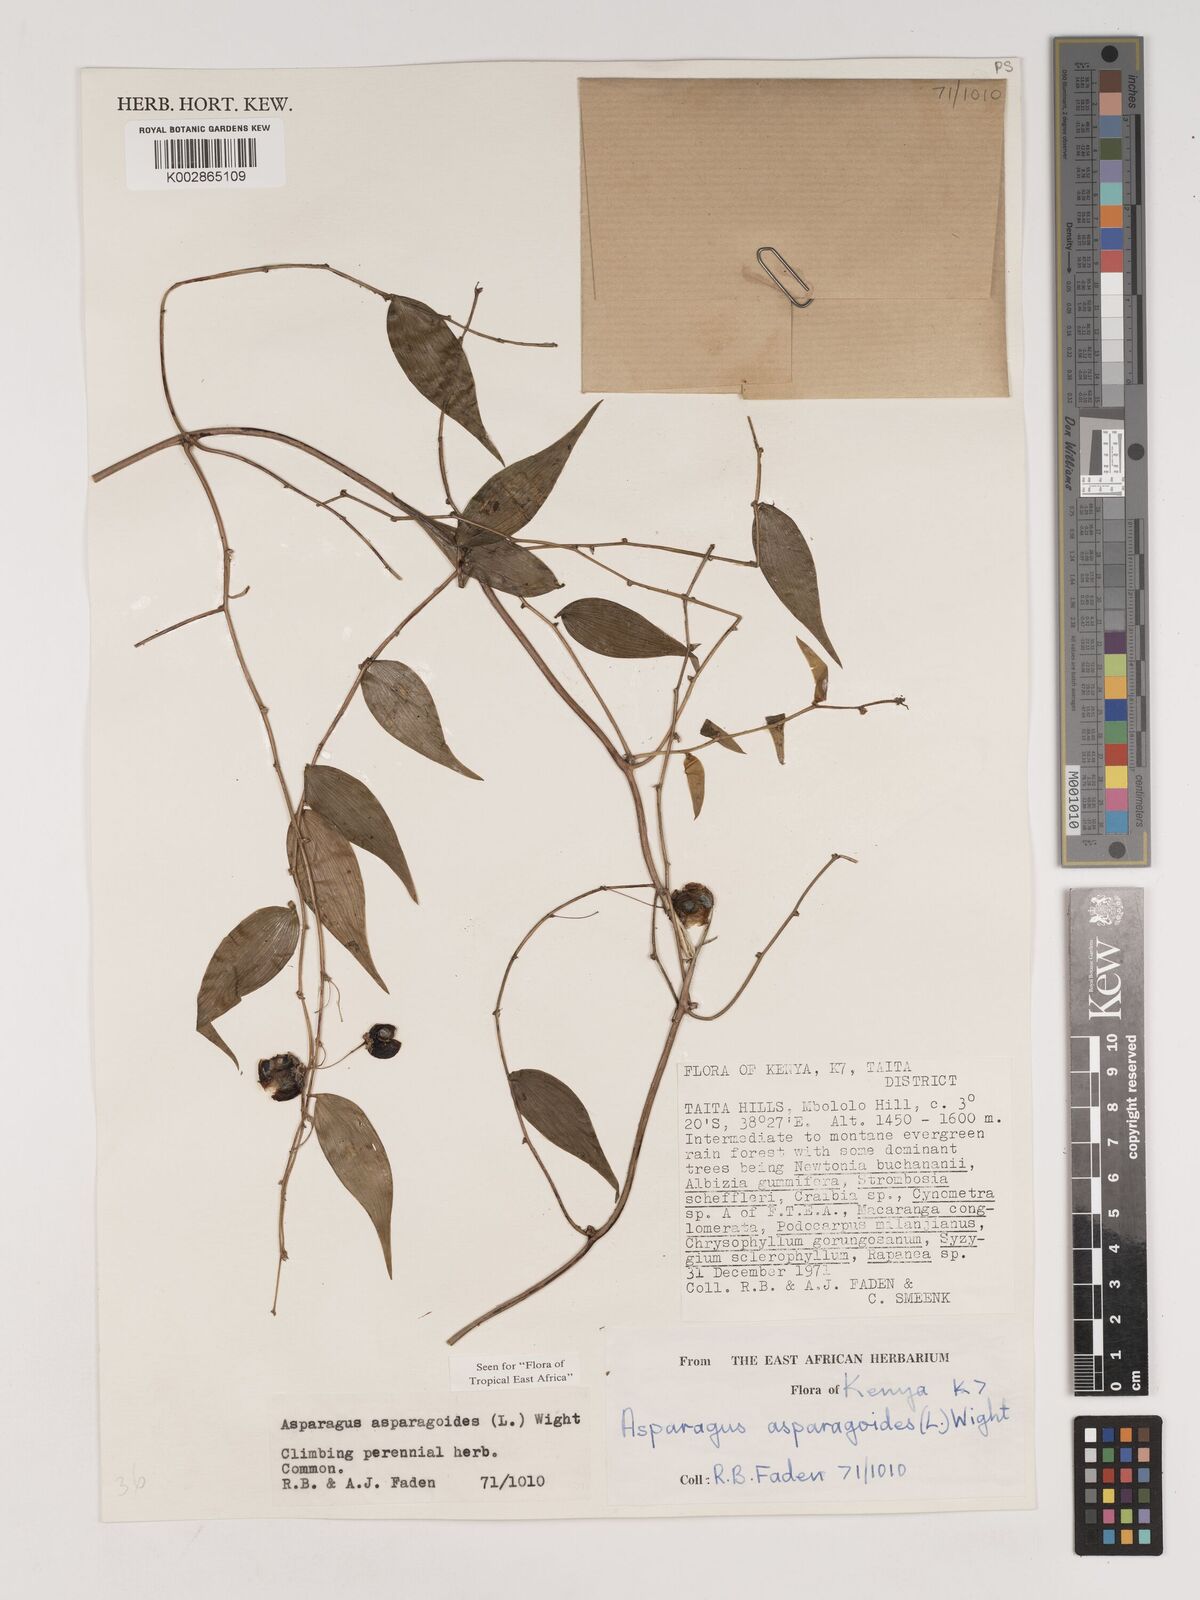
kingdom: Plantae
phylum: Tracheophyta
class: Liliopsida
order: Asparagales
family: Asparagaceae
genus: Asparagus
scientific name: Asparagus asparagoides
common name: African asparagus fern
